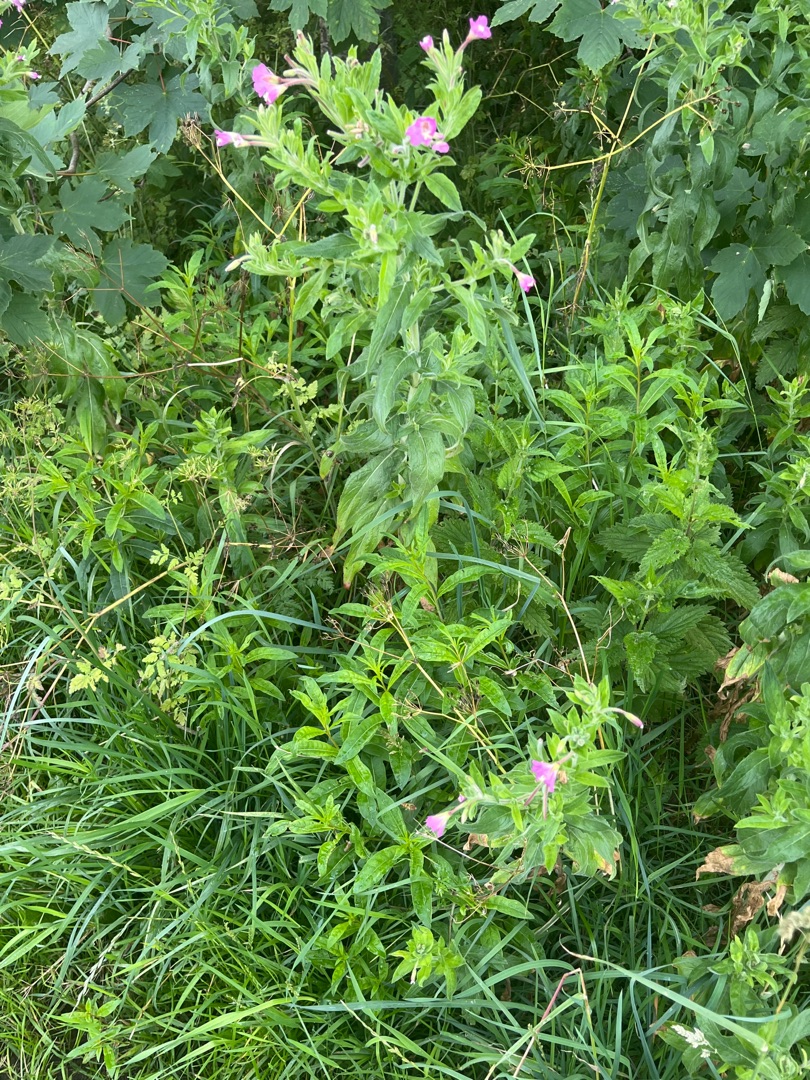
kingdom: Plantae
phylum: Tracheophyta
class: Magnoliopsida
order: Myrtales
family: Onagraceae
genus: Epilobium
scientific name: Epilobium hirsutum
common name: Lådden dueurt
